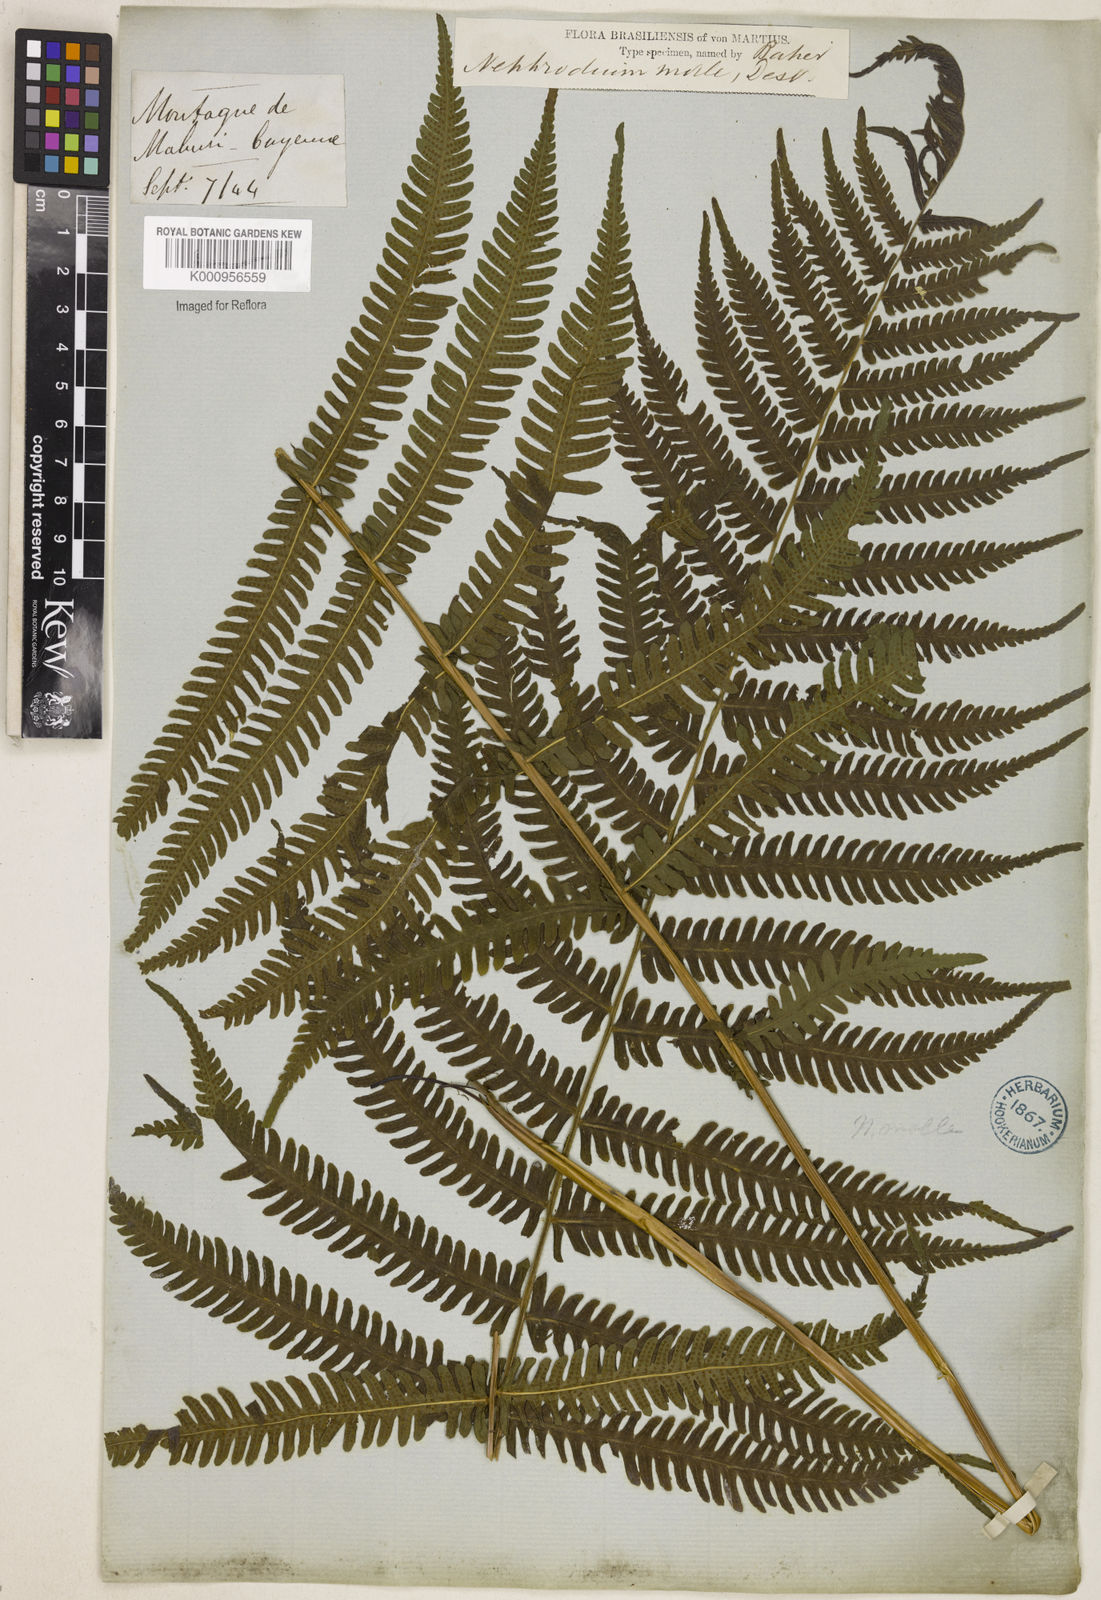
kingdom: Plantae
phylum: Tracheophyta
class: Polypodiopsida
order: Polypodiales
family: Thelypteridaceae
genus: Christella
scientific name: Christella hispidula
